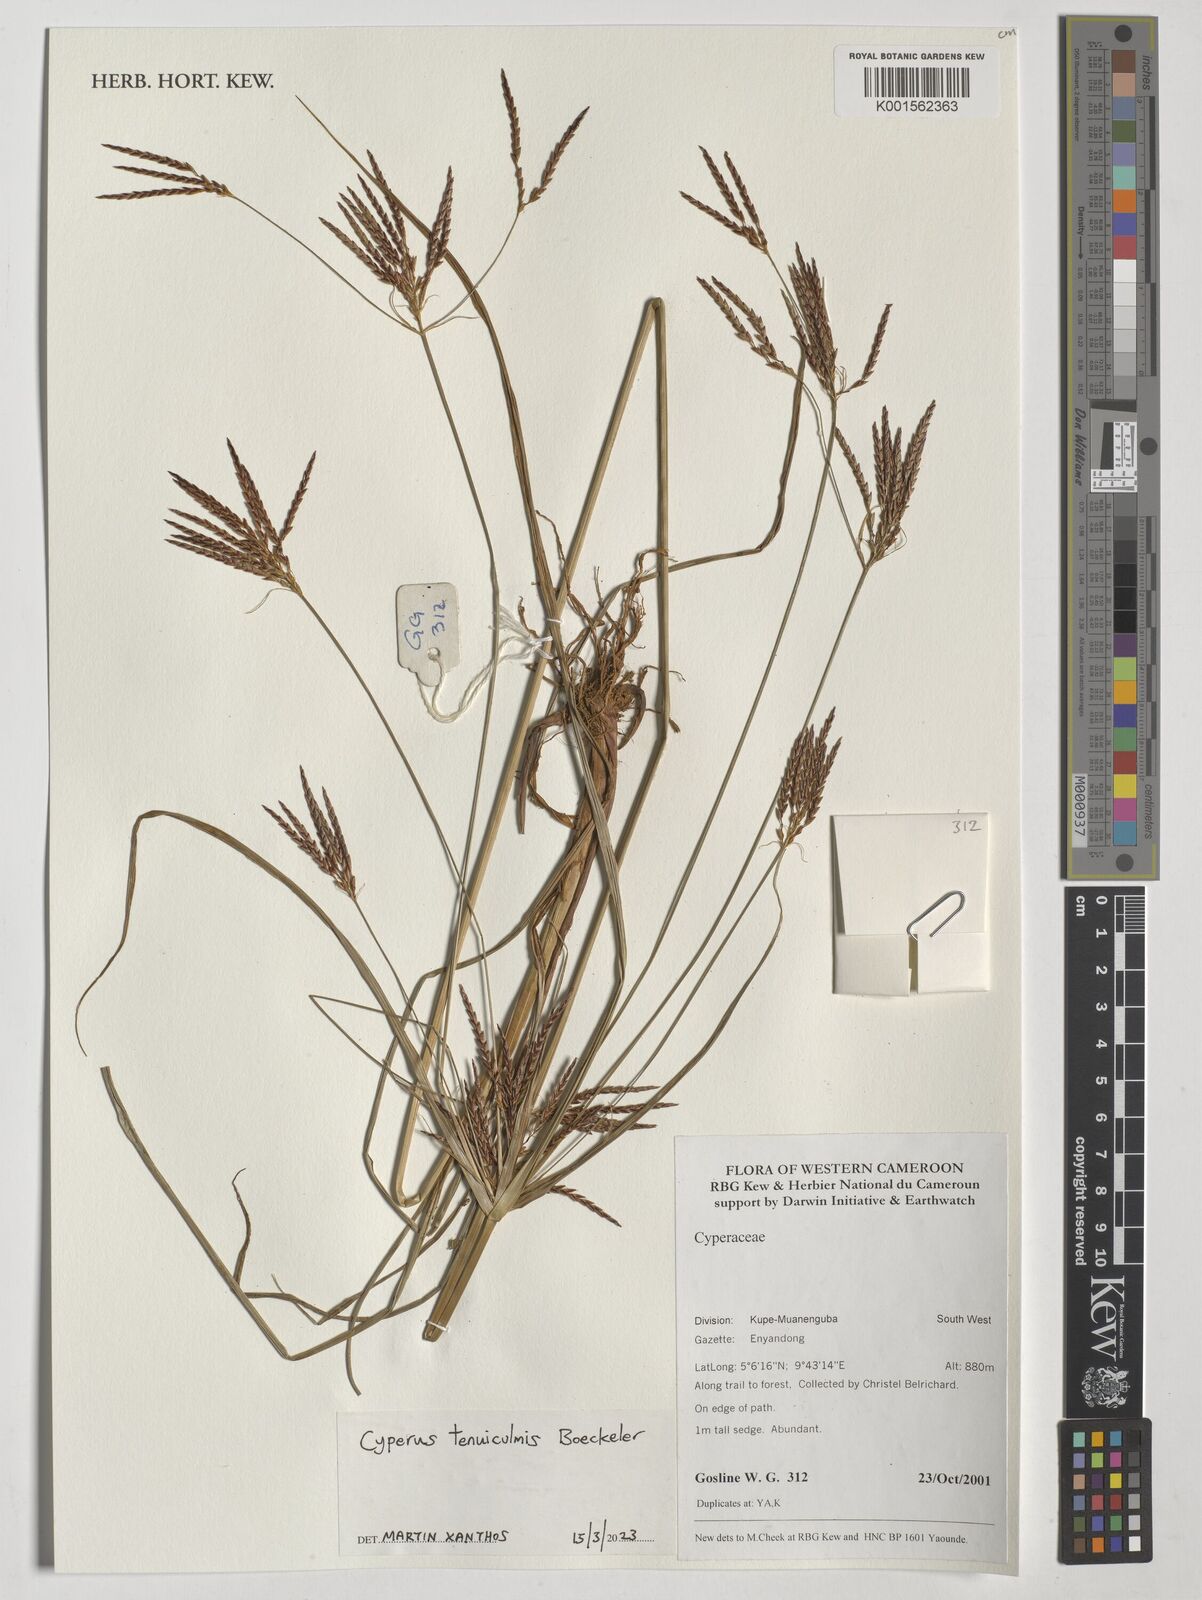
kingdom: Plantae
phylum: Tracheophyta
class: Liliopsida
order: Poales
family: Cyperaceae
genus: Cyperus
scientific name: Cyperus tenuiculmis
